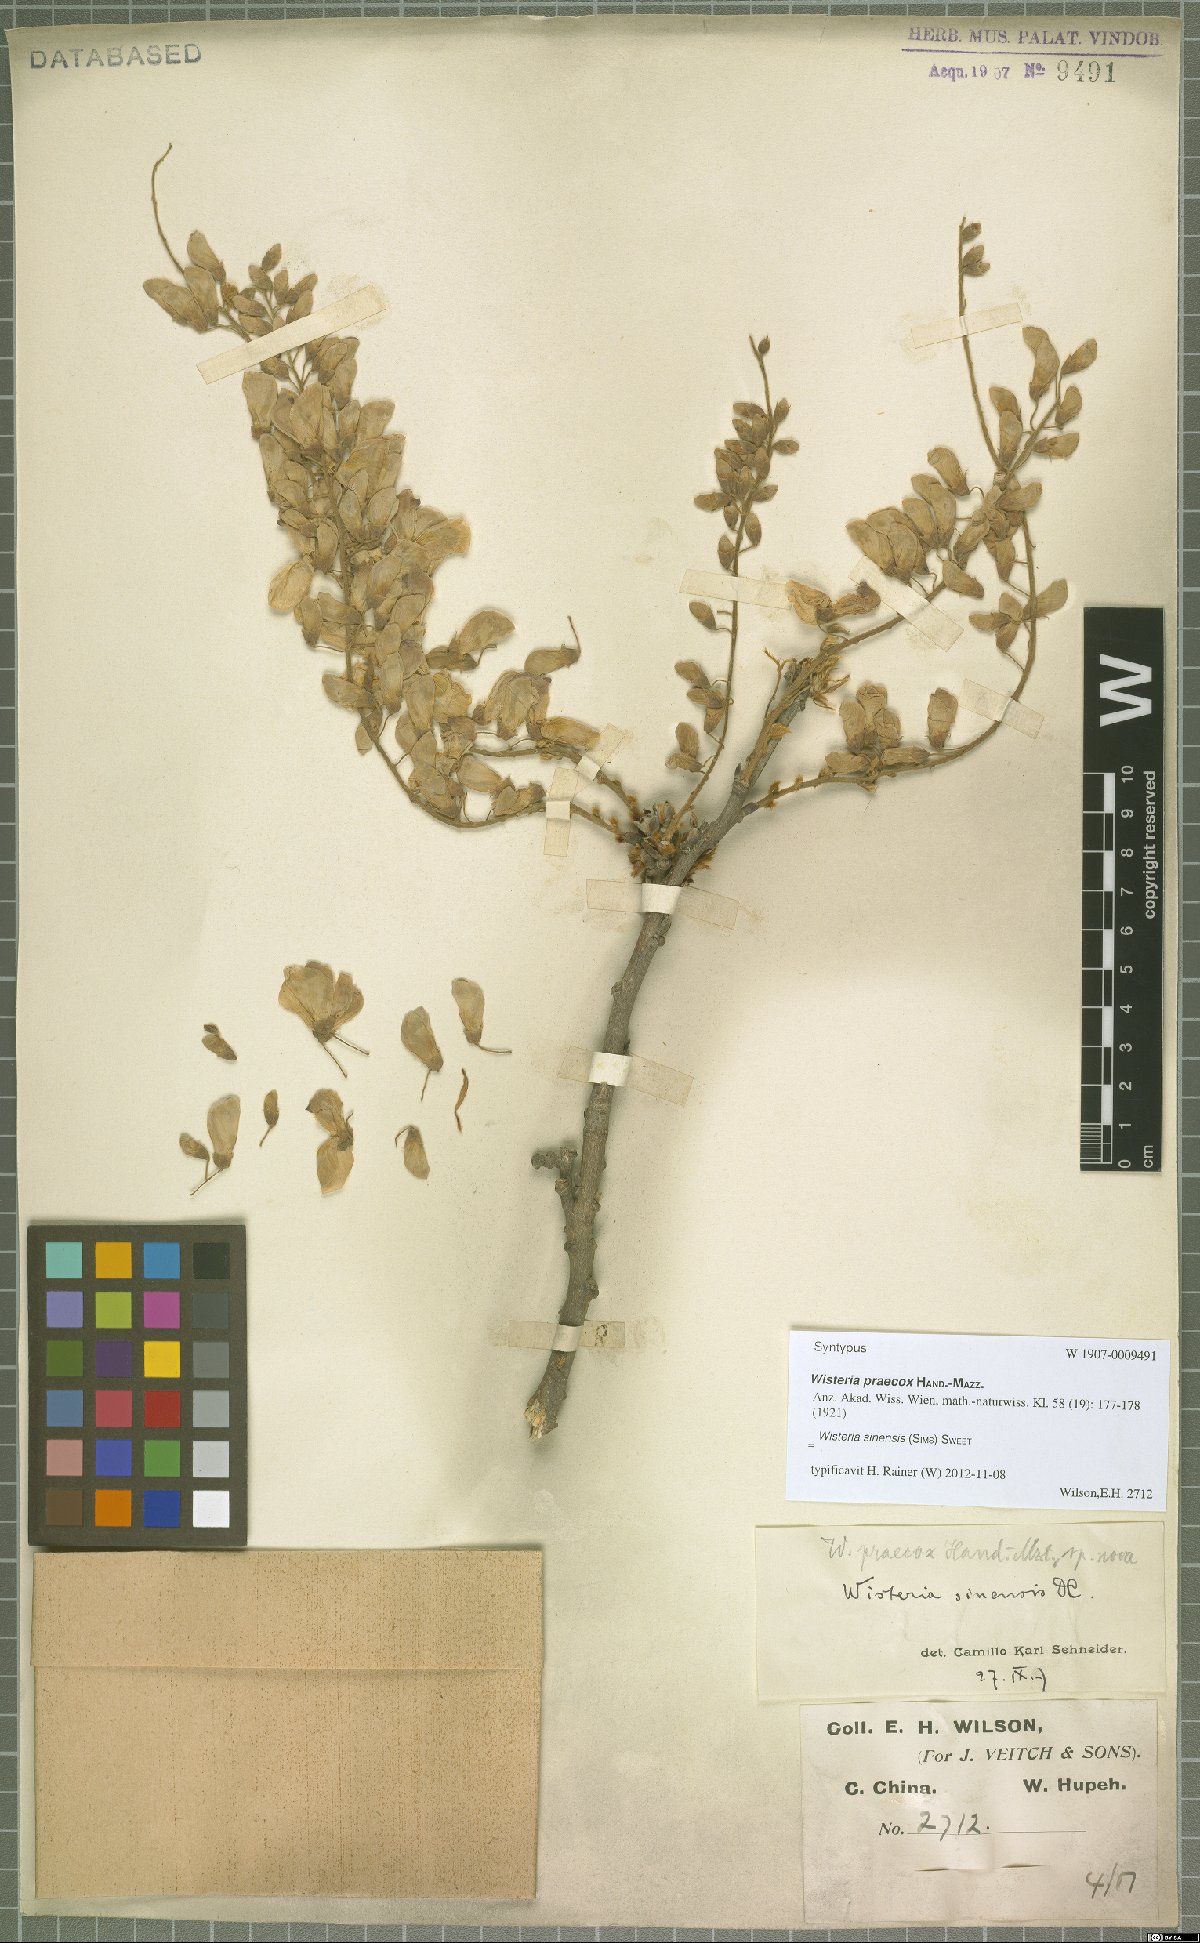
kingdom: Plantae
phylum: Tracheophyta
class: Magnoliopsida
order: Fabales
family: Fabaceae
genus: Wisteria
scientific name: Wisteria sinensis
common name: Chinese wisteria
